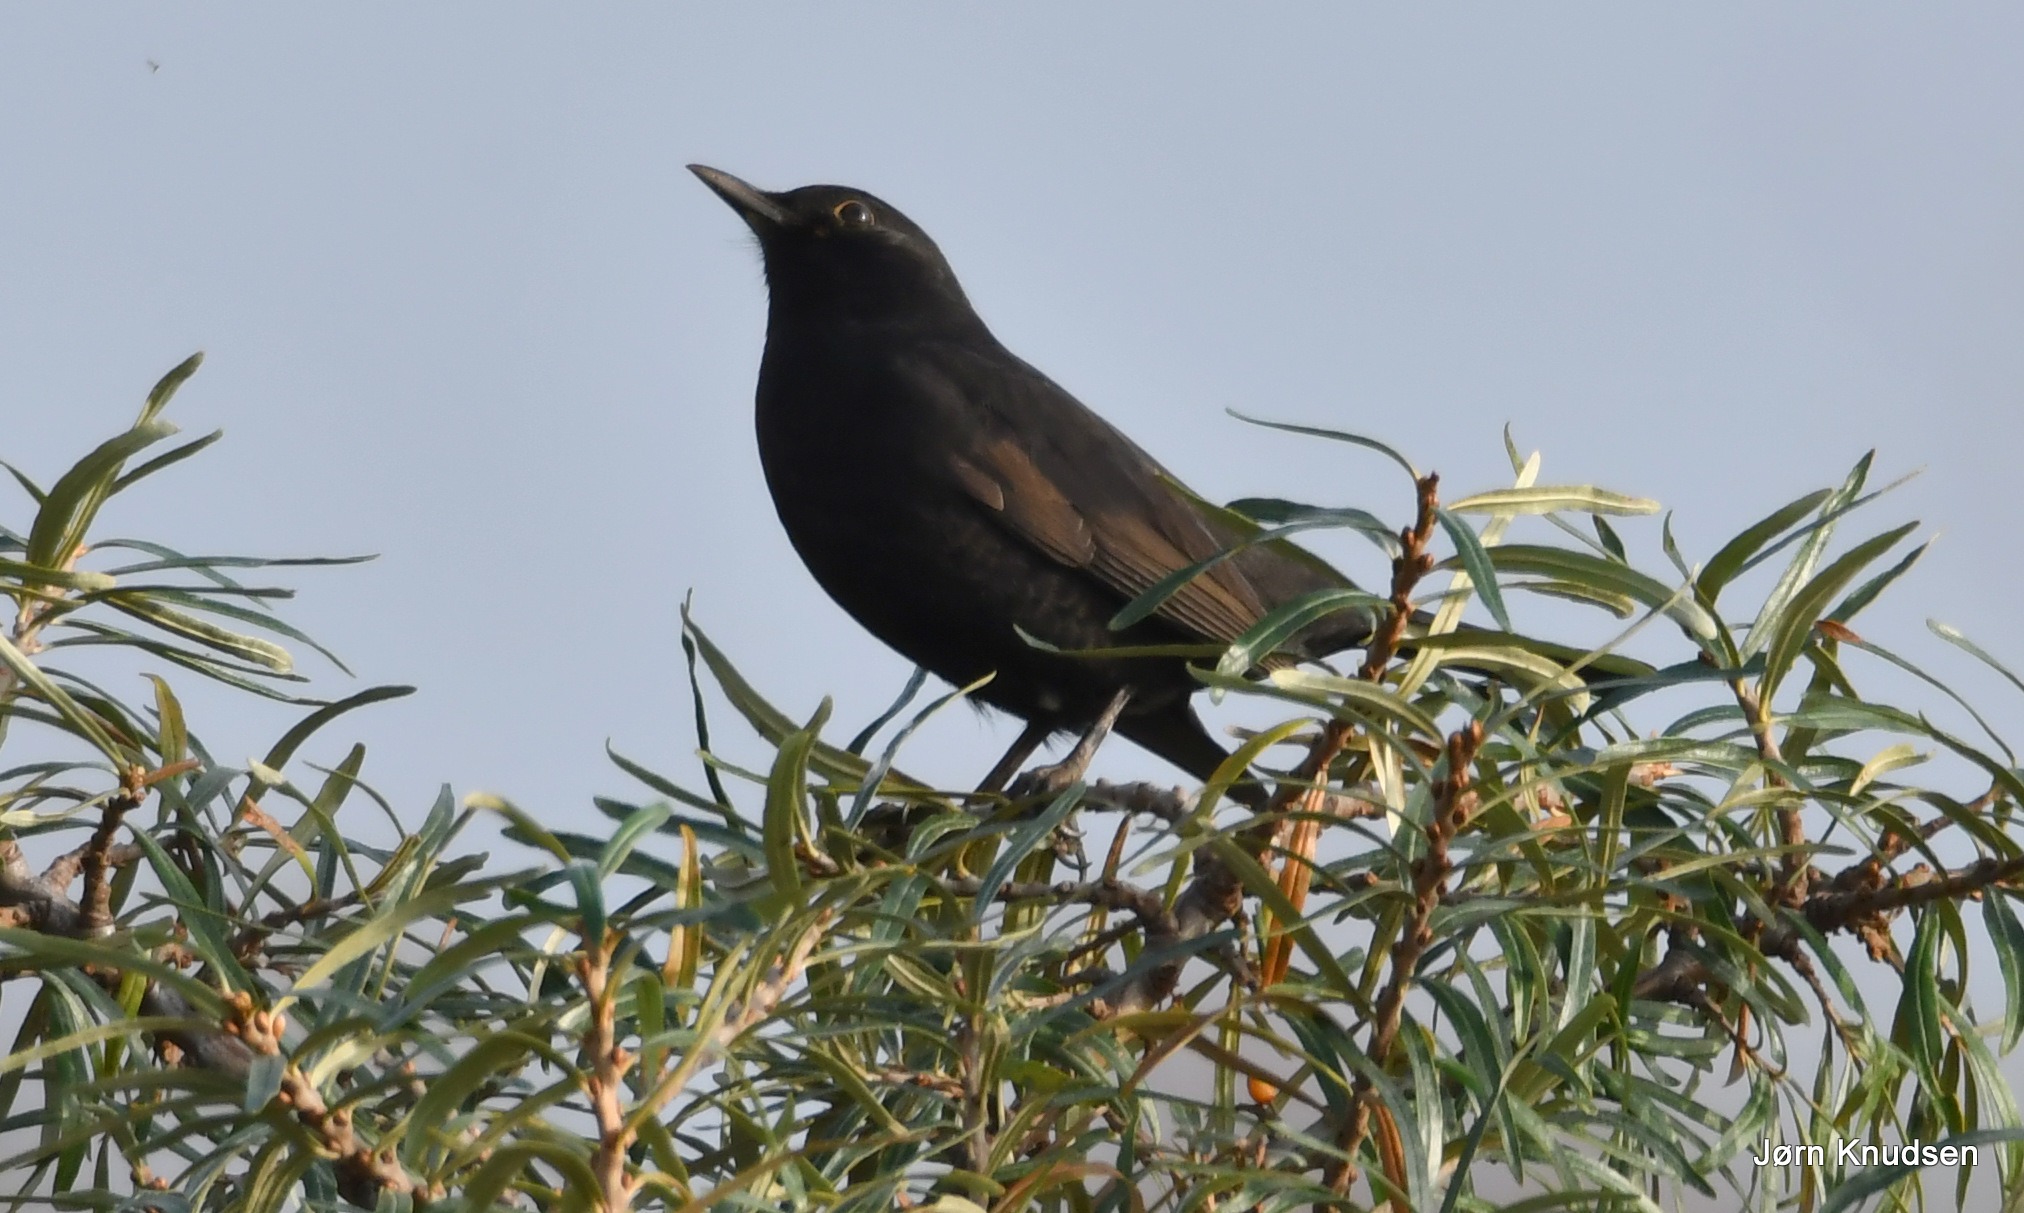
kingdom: Animalia
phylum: Chordata
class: Aves
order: Passeriformes
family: Turdidae
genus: Turdus
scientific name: Turdus merula
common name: Solsort
